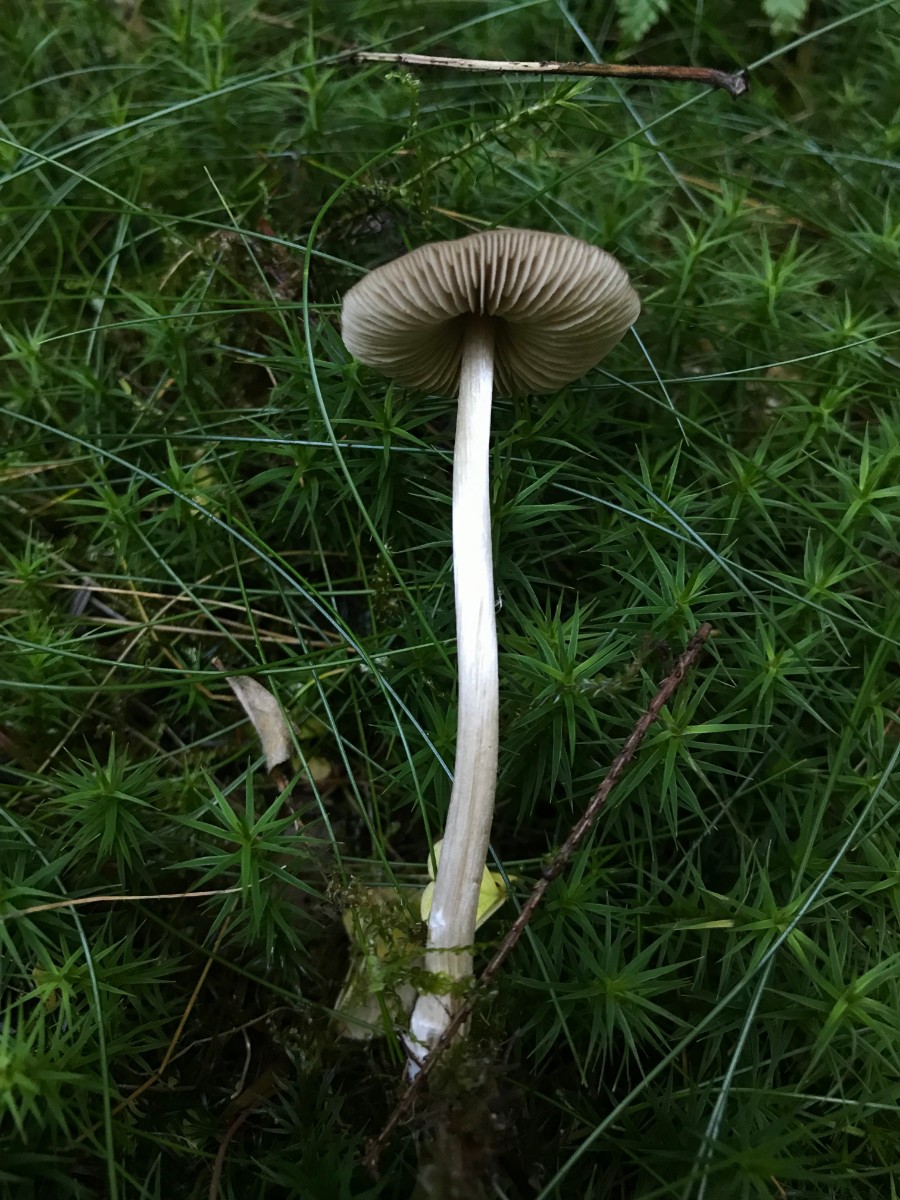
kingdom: Fungi
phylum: Basidiomycota
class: Agaricomycetes
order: Agaricales
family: Entolomataceae
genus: Entoloma
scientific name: Entoloma conferendum
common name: stjernesporet rødblad
